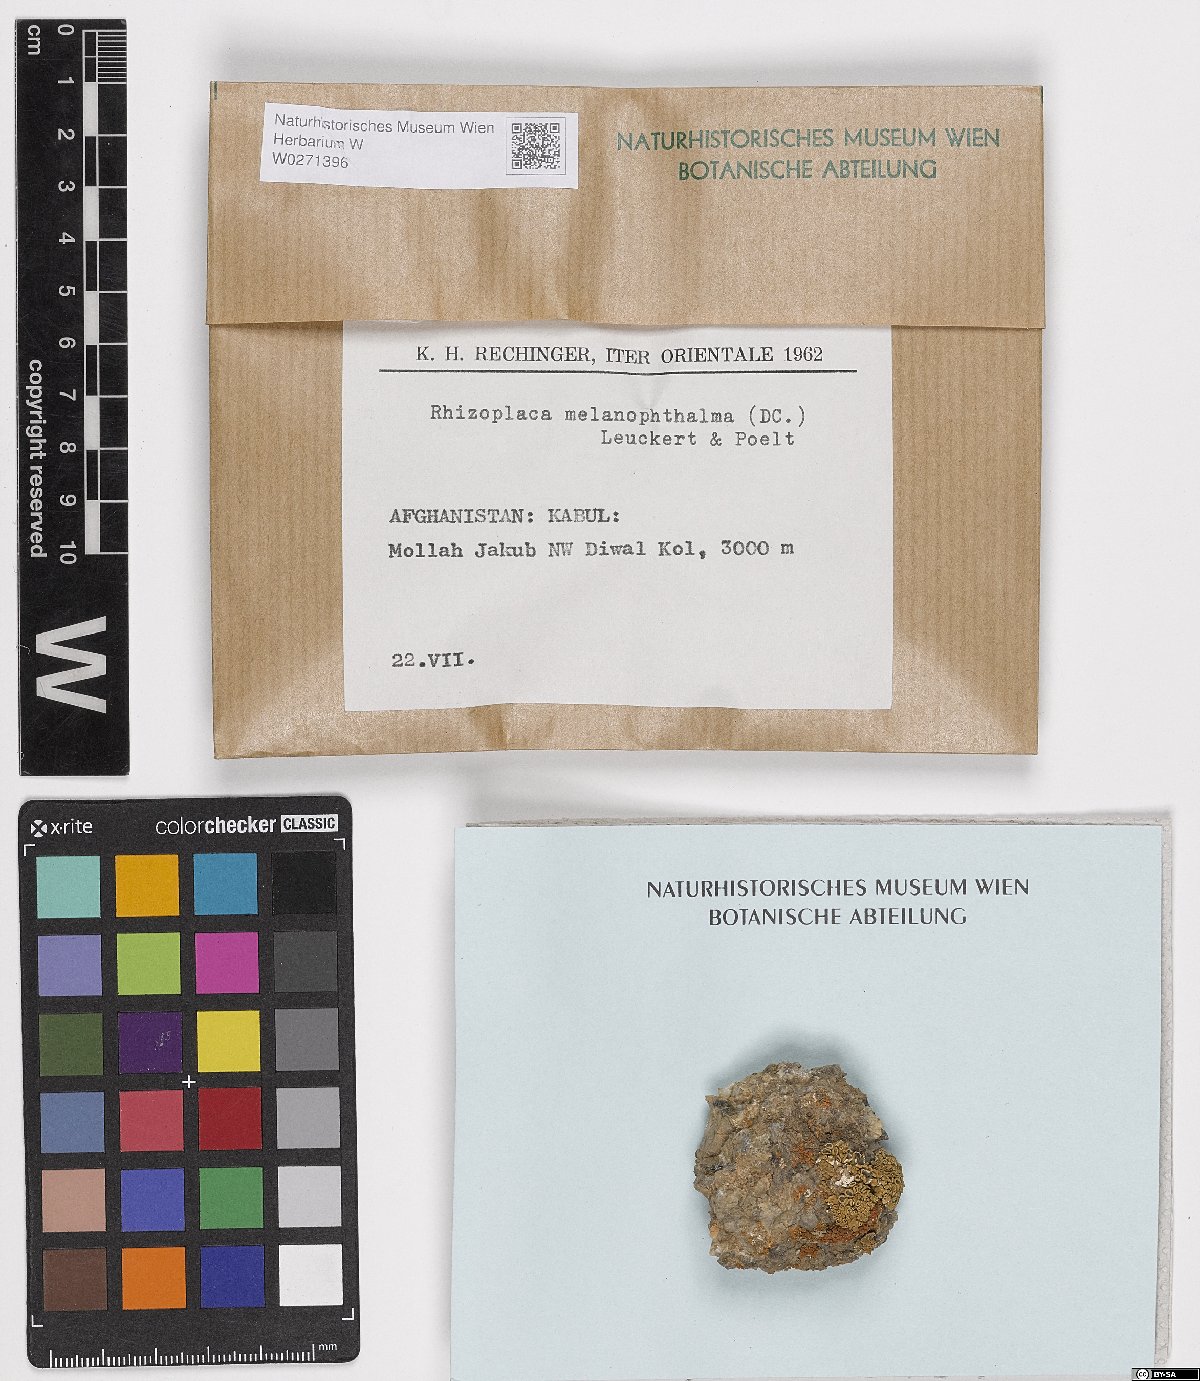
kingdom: Fungi
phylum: Ascomycota
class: Lecanoromycetes
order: Lecanorales
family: Lecanoraceae
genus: Rhizoplaca
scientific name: Rhizoplaca melanophthalma
